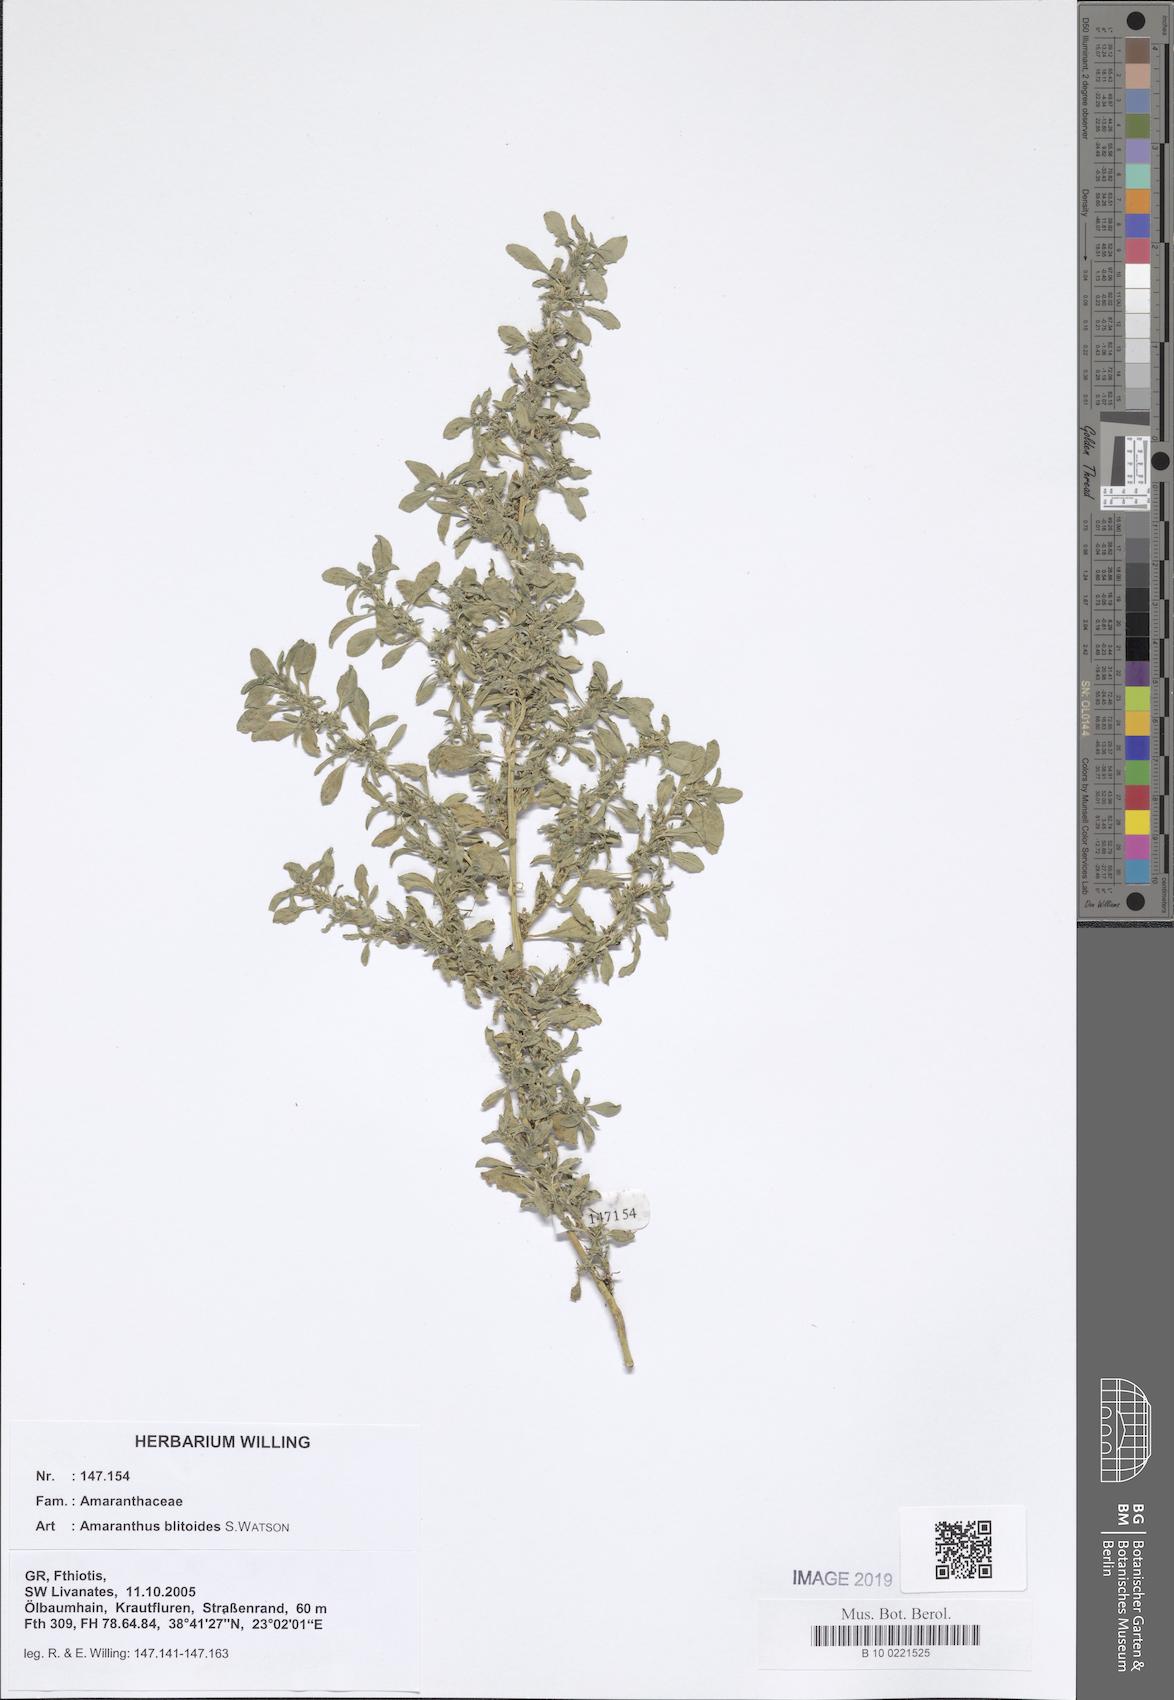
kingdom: Plantae
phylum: Tracheophyta
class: Magnoliopsida
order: Caryophyllales
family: Amaranthaceae
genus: Amaranthus
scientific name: Amaranthus blitoides
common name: Prostrate pigweed
